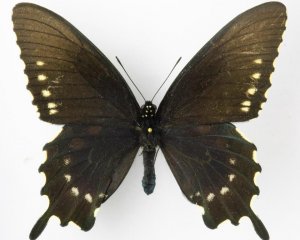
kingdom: Animalia
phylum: Arthropoda
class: Insecta
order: Lepidoptera
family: Papilionidae
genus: Battus
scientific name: Battus philenor
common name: Pipevine Swallowtail
